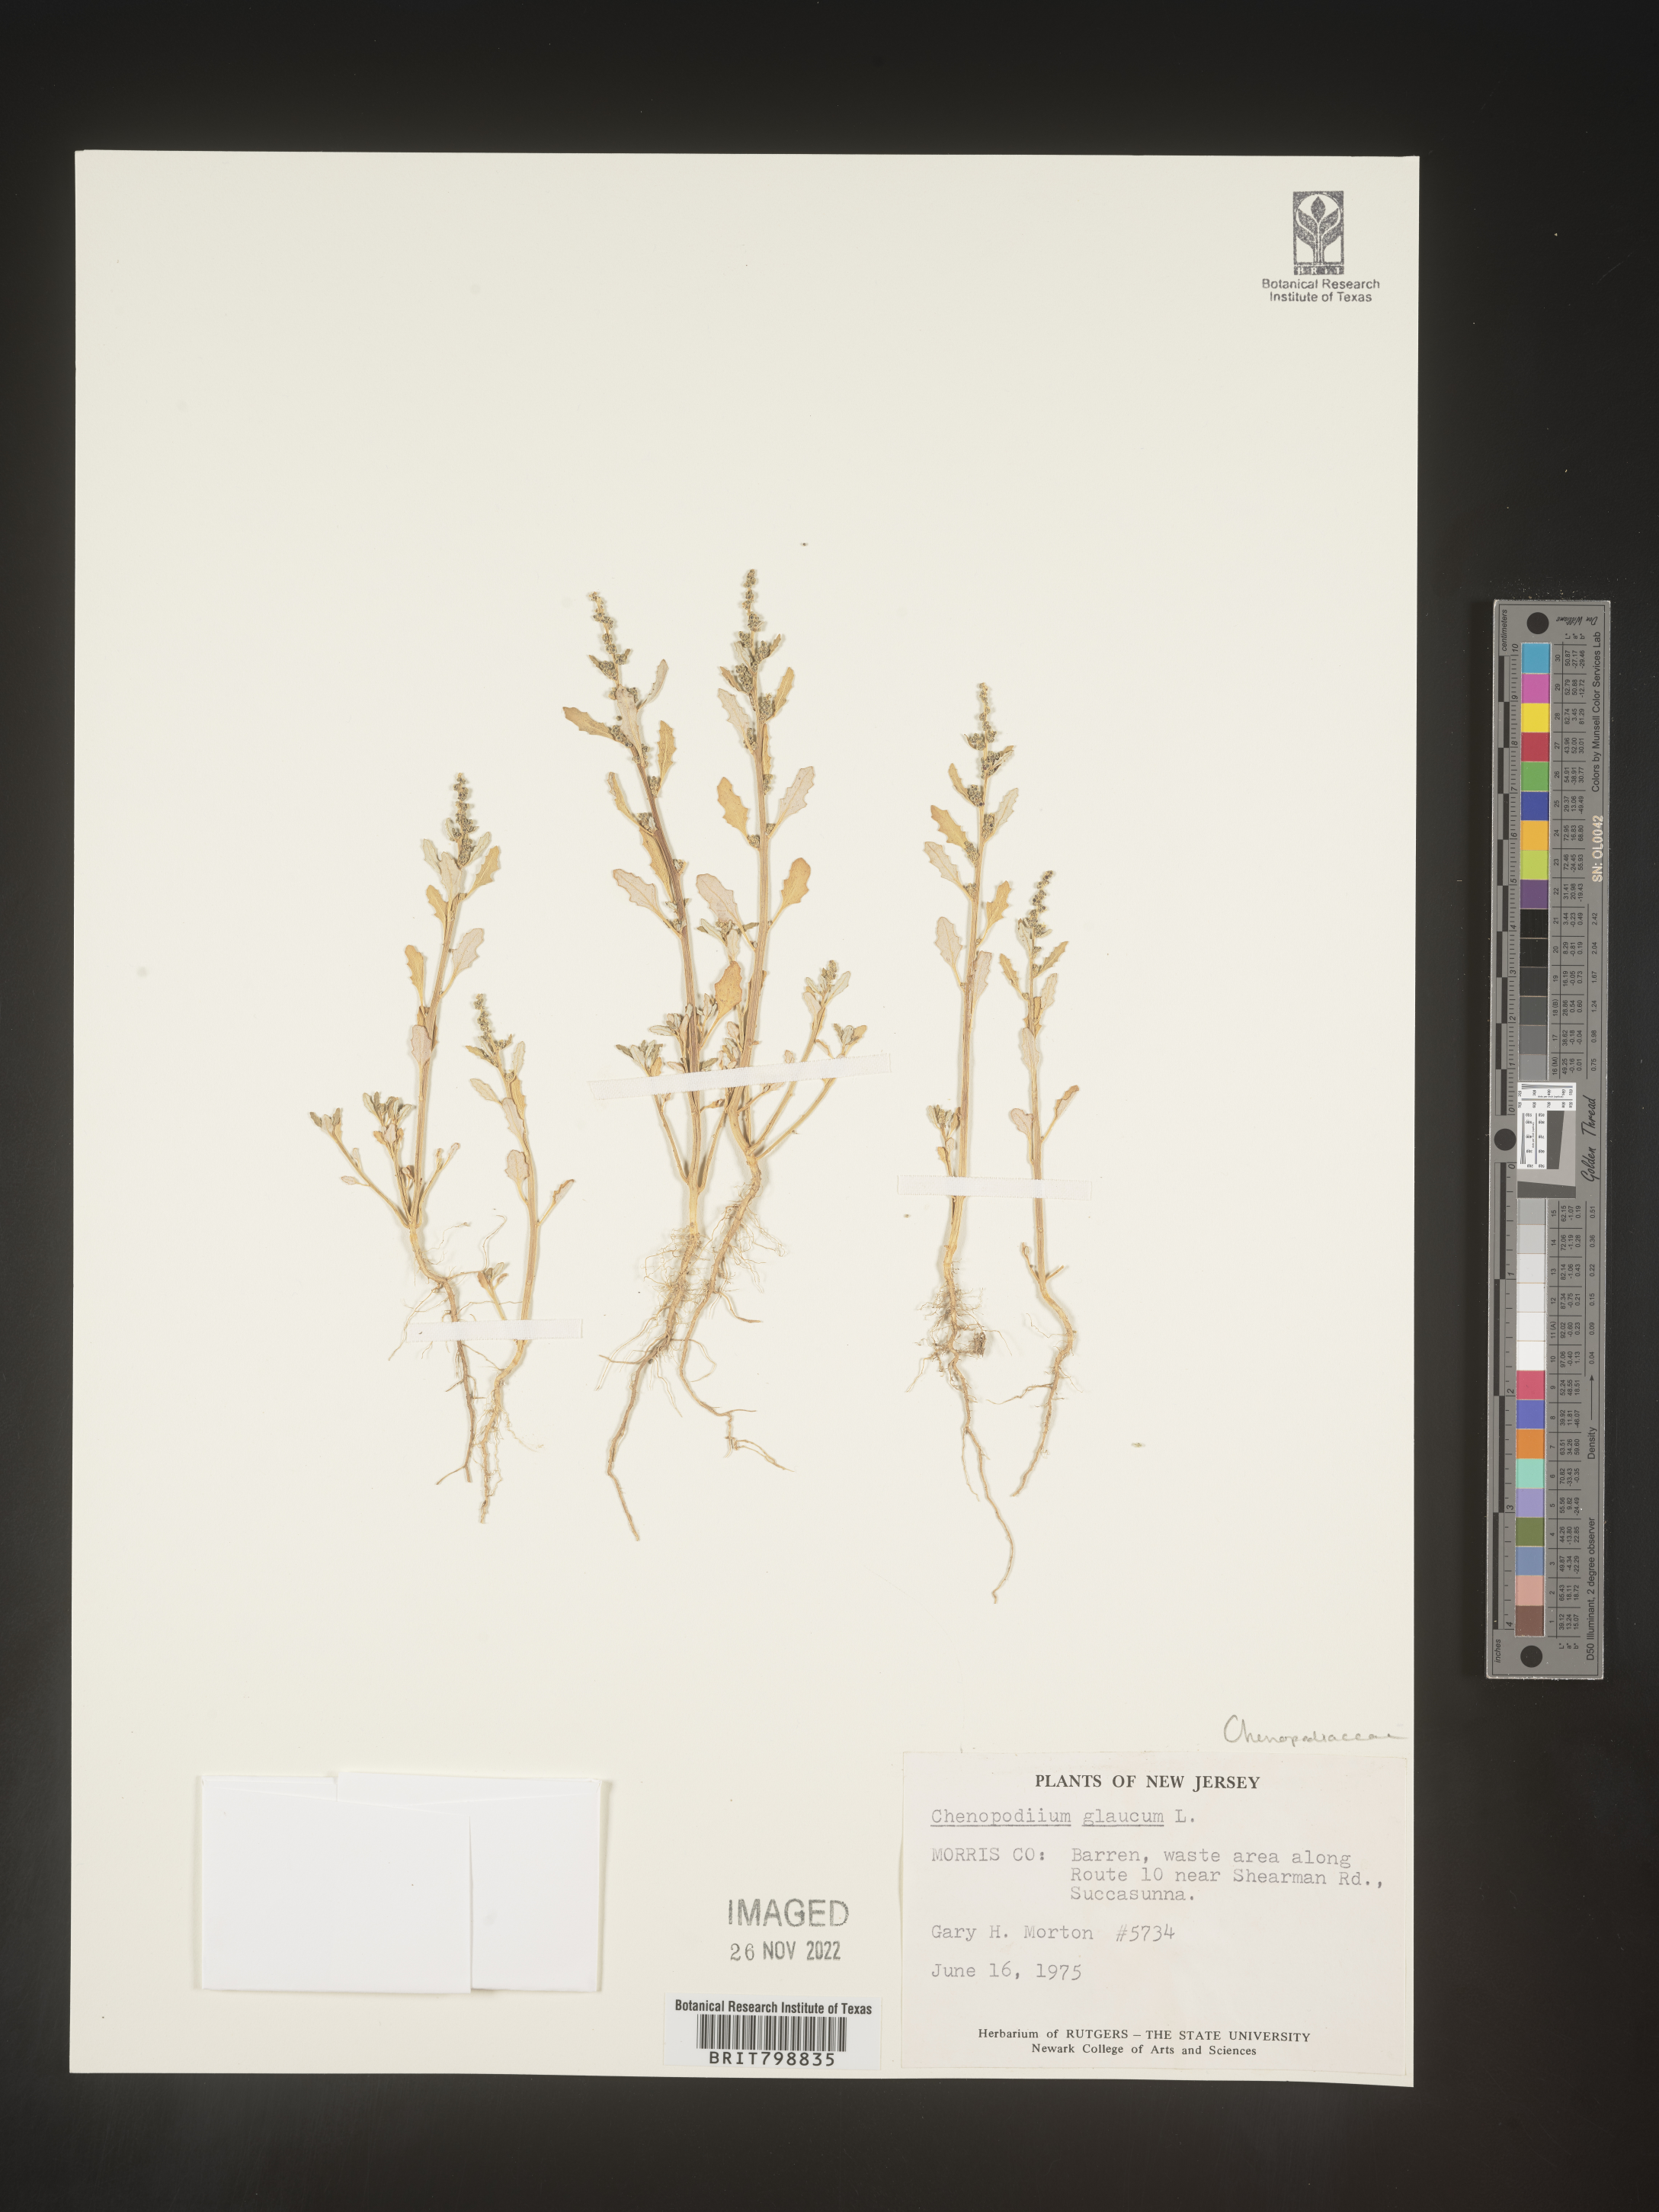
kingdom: Plantae
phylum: Tracheophyta
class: Magnoliopsida
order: Caryophyllales
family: Amaranthaceae
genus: Oxybasis
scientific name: Oxybasis glauca
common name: Glaucous goosefoot
